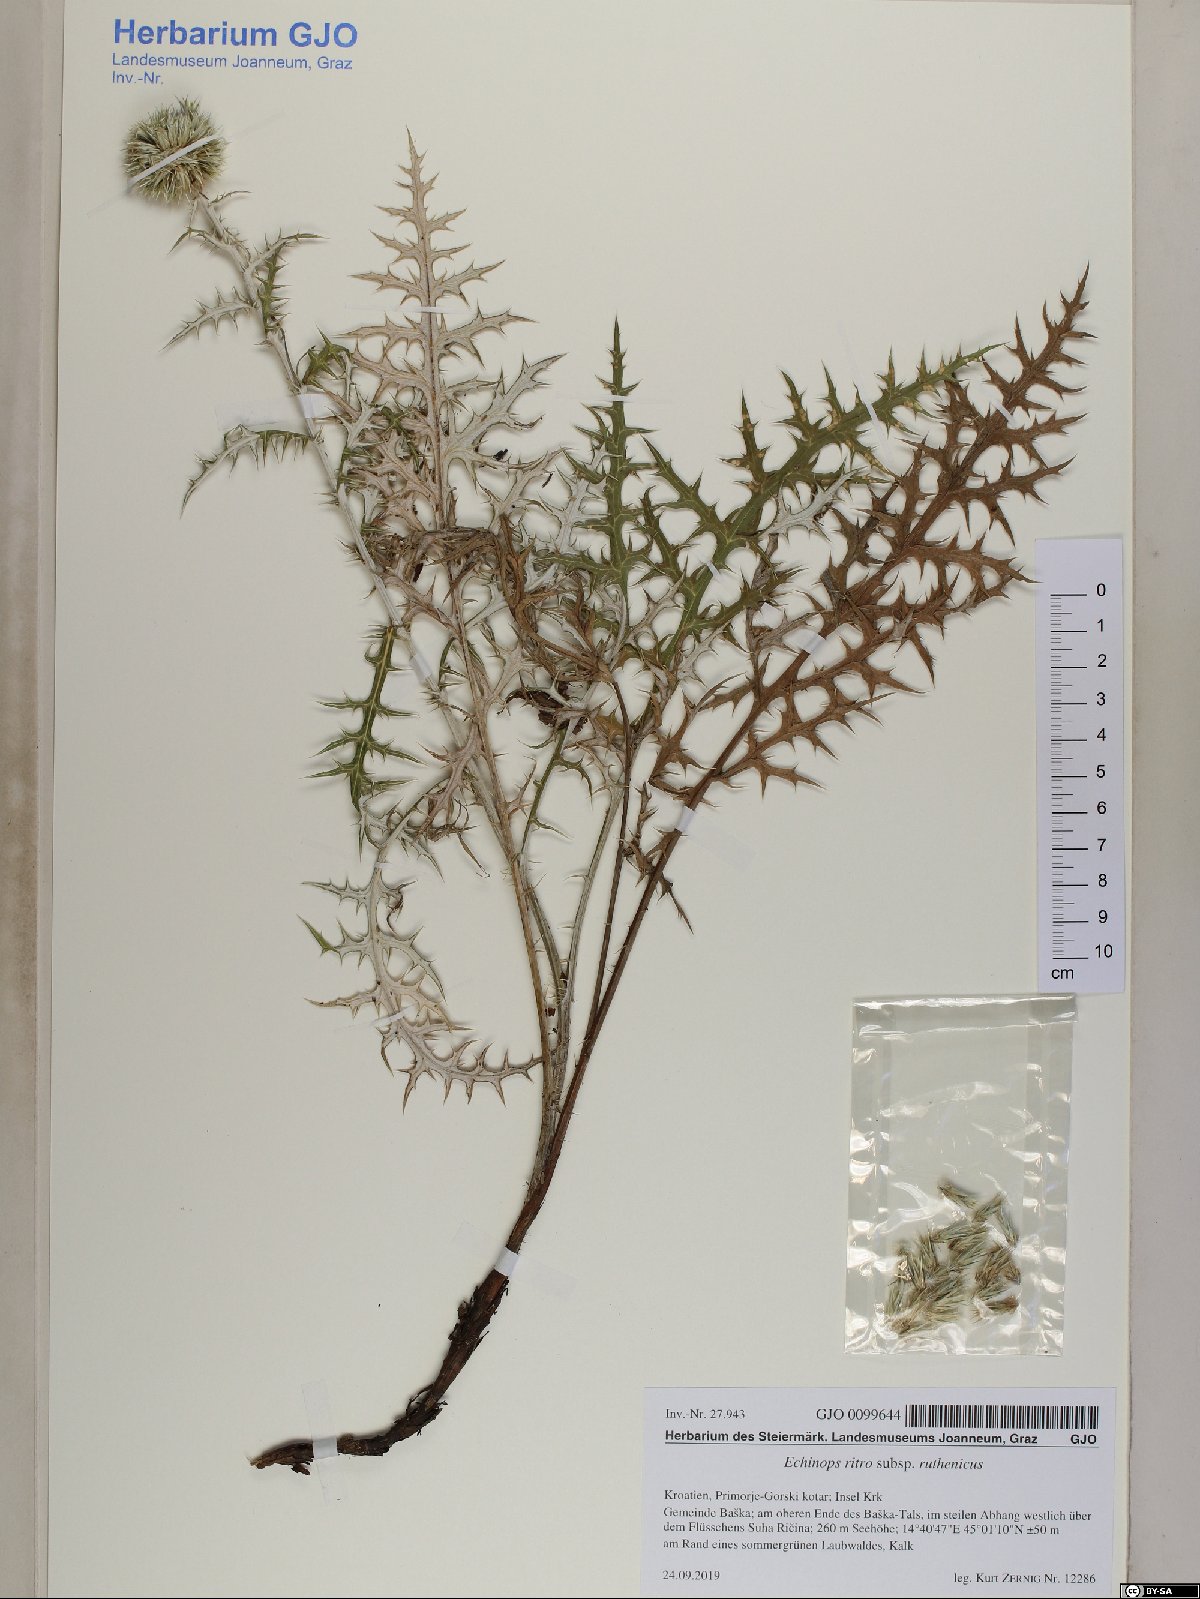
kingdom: Plantae
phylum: Tracheophyta
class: Magnoliopsida
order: Asterales
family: Asteraceae
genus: Echinops
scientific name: Echinops ritro
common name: Globe thistle
